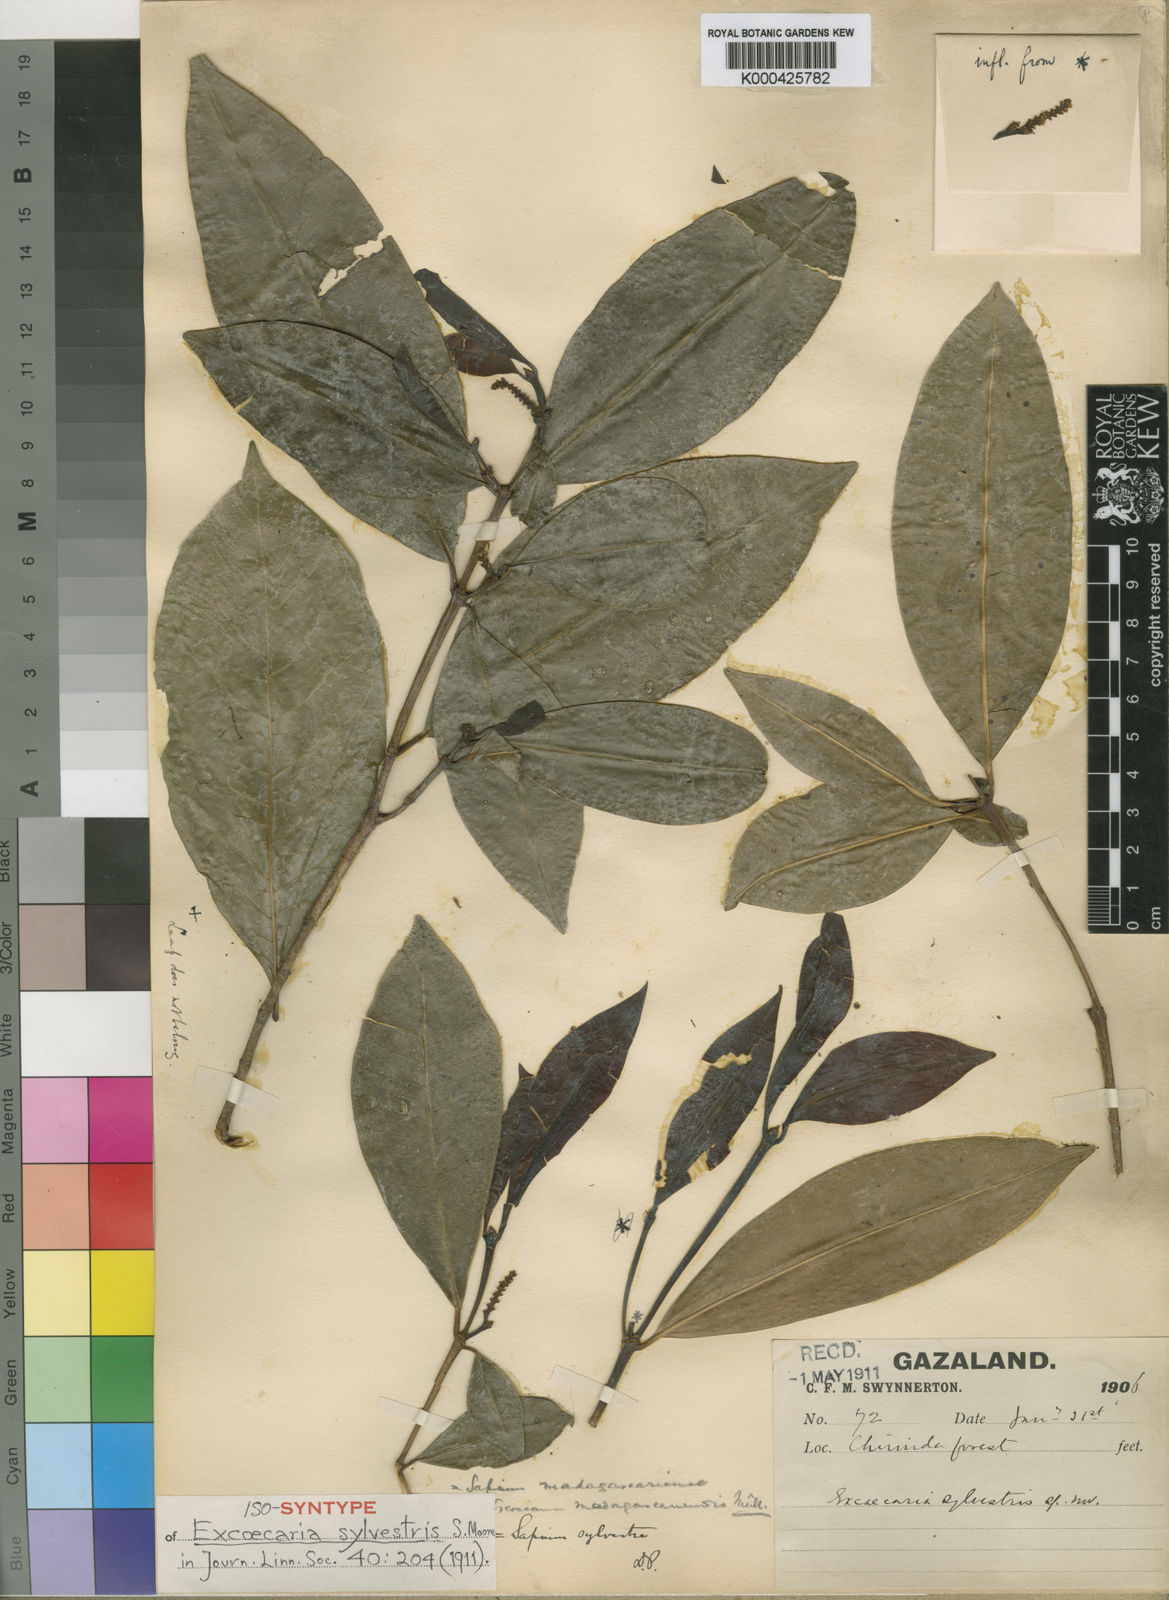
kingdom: Plantae
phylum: Tracheophyta
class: Magnoliopsida
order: Malpighiales
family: Euphorbiaceae
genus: Excoecaria
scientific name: Excoecaria
